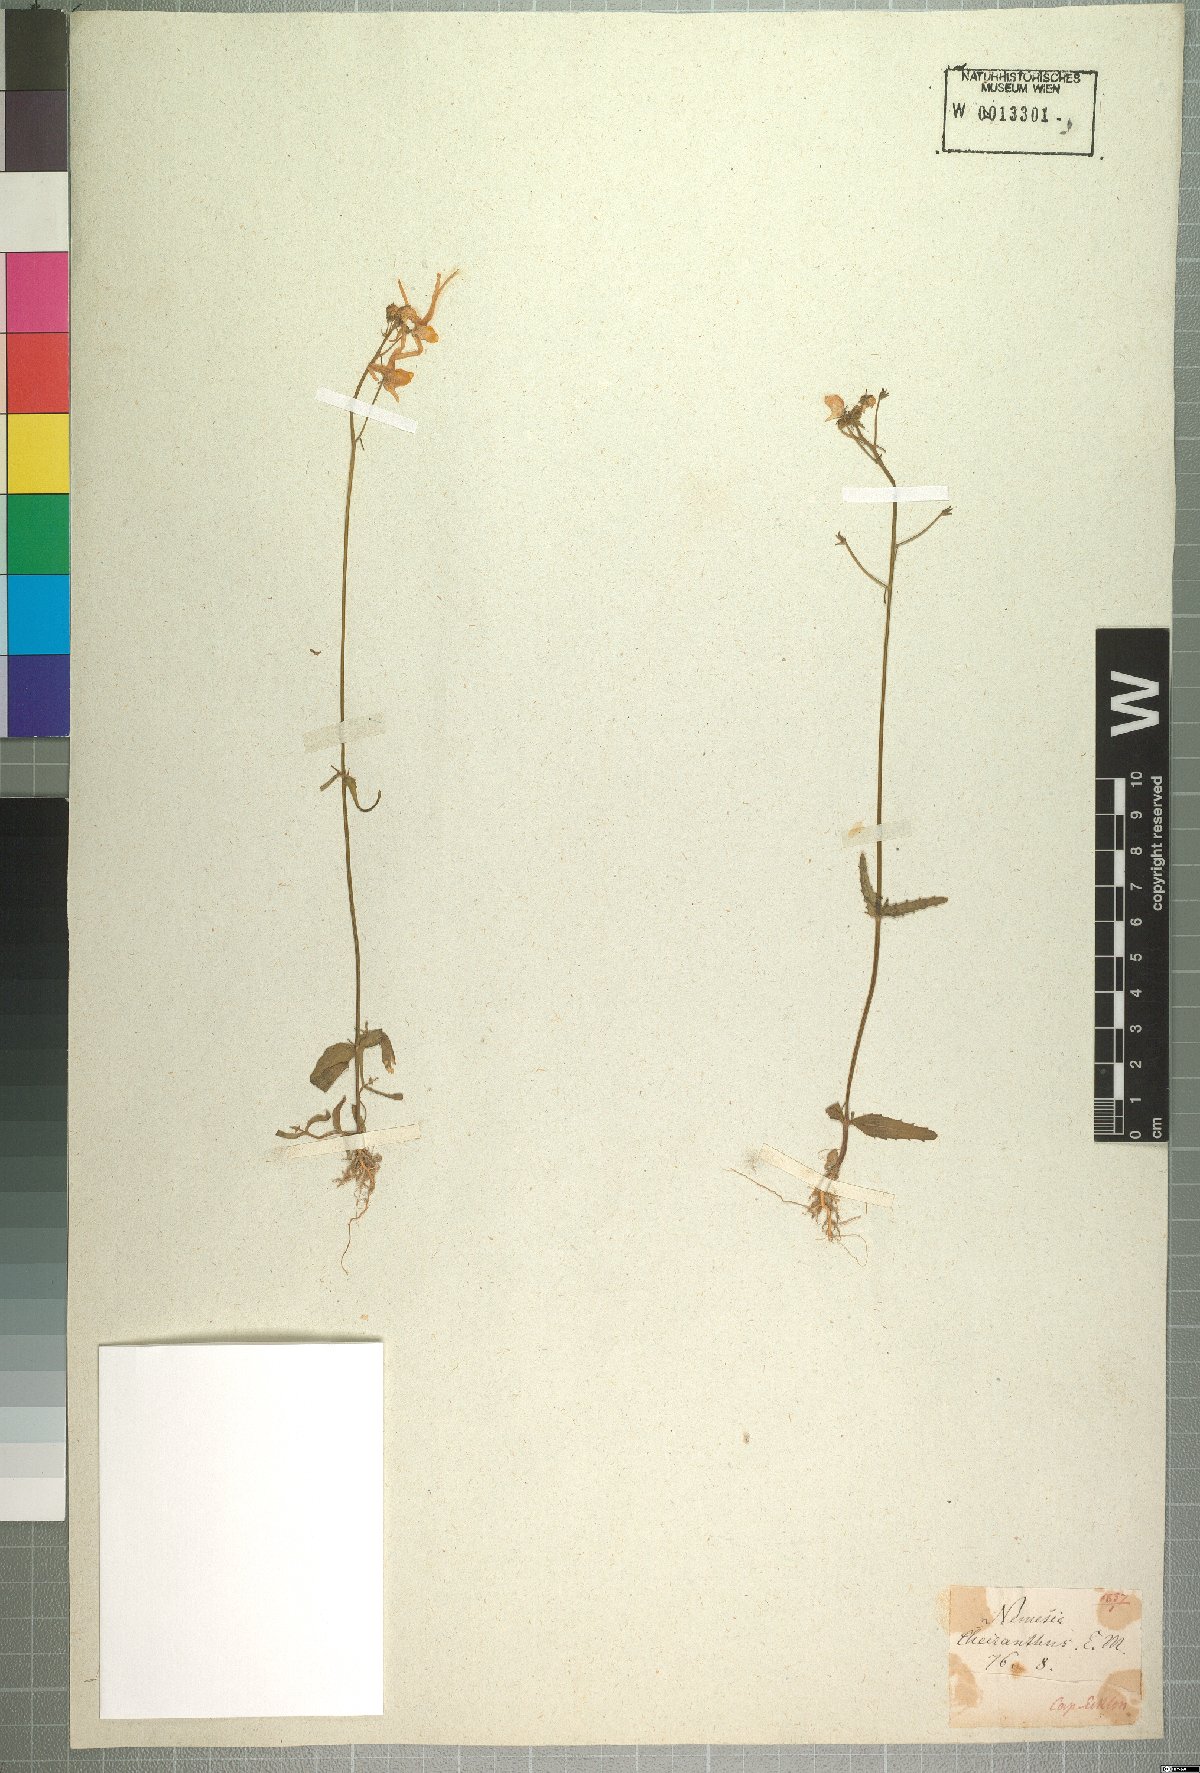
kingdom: Plantae
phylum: Tracheophyta
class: Magnoliopsida
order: Lamiales
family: Scrophulariaceae
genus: Nemesia
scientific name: Nemesia cheiranthus
